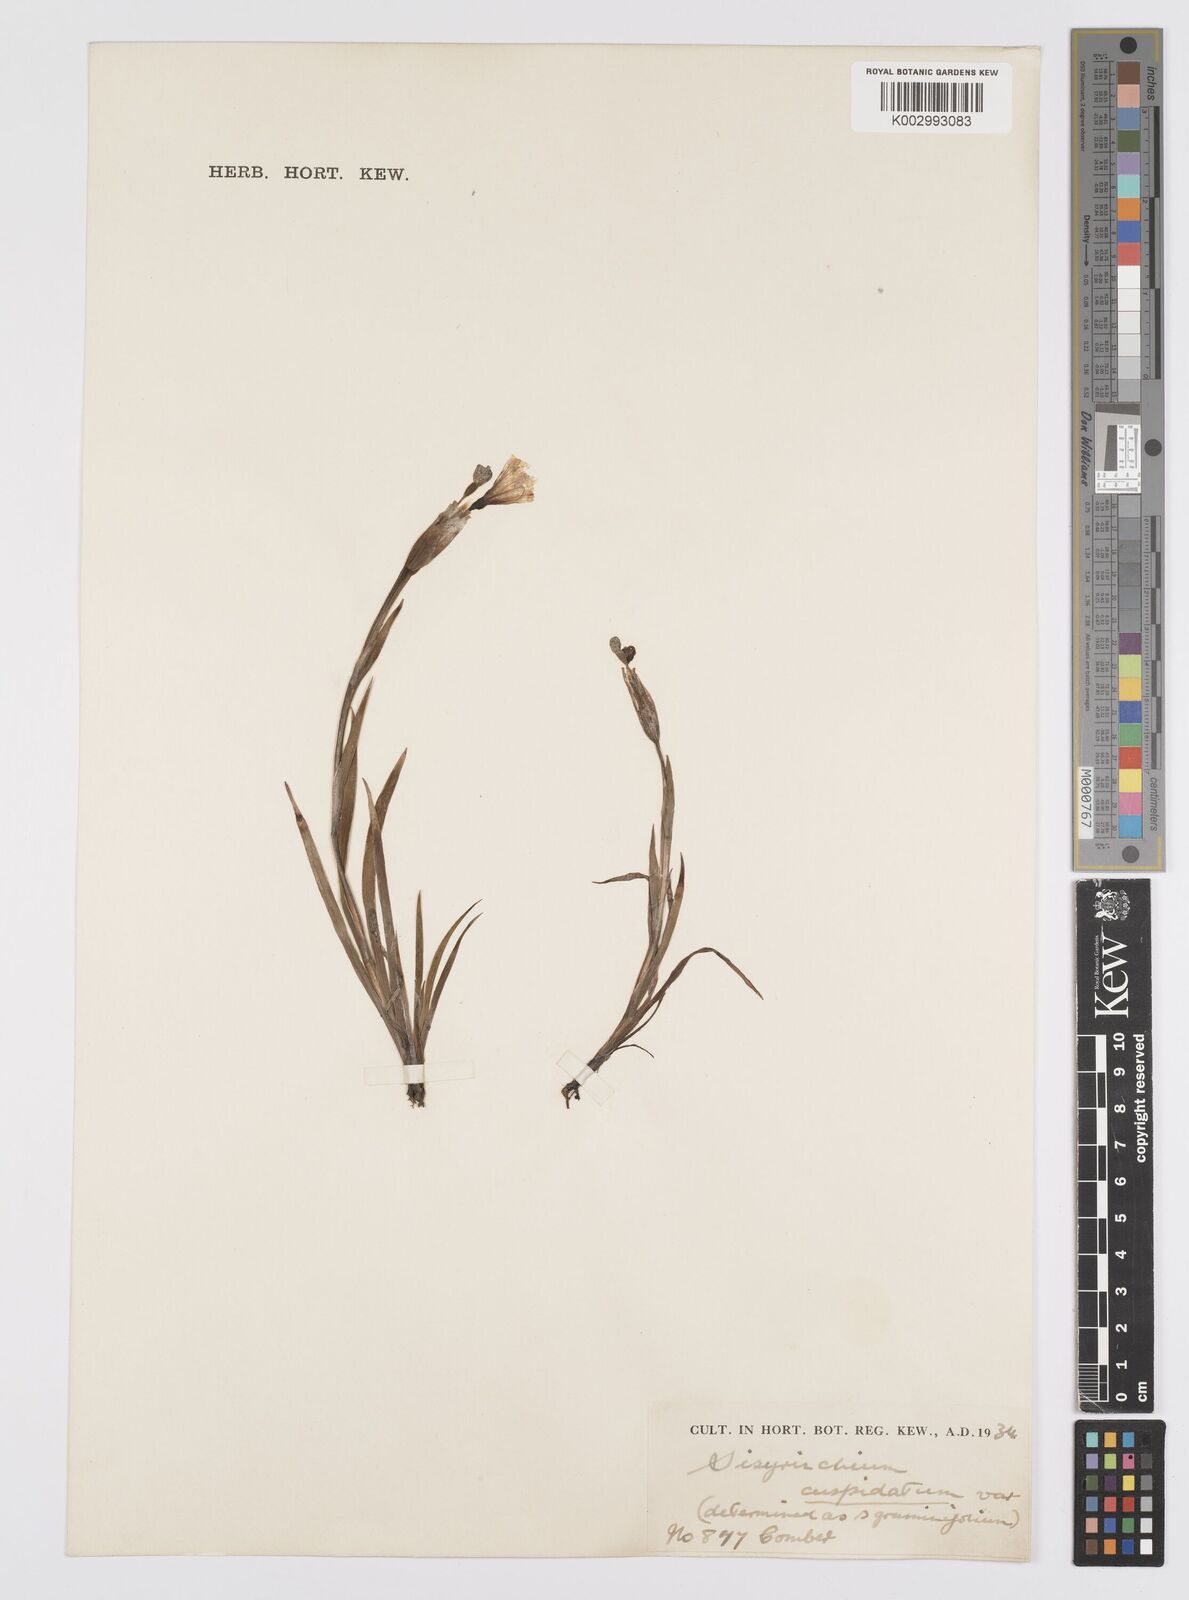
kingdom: Plantae
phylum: Tracheophyta
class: Liliopsida
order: Asparagales
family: Iridaceae
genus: Sisyrinchium
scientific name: Sisyrinchium graminifolium
